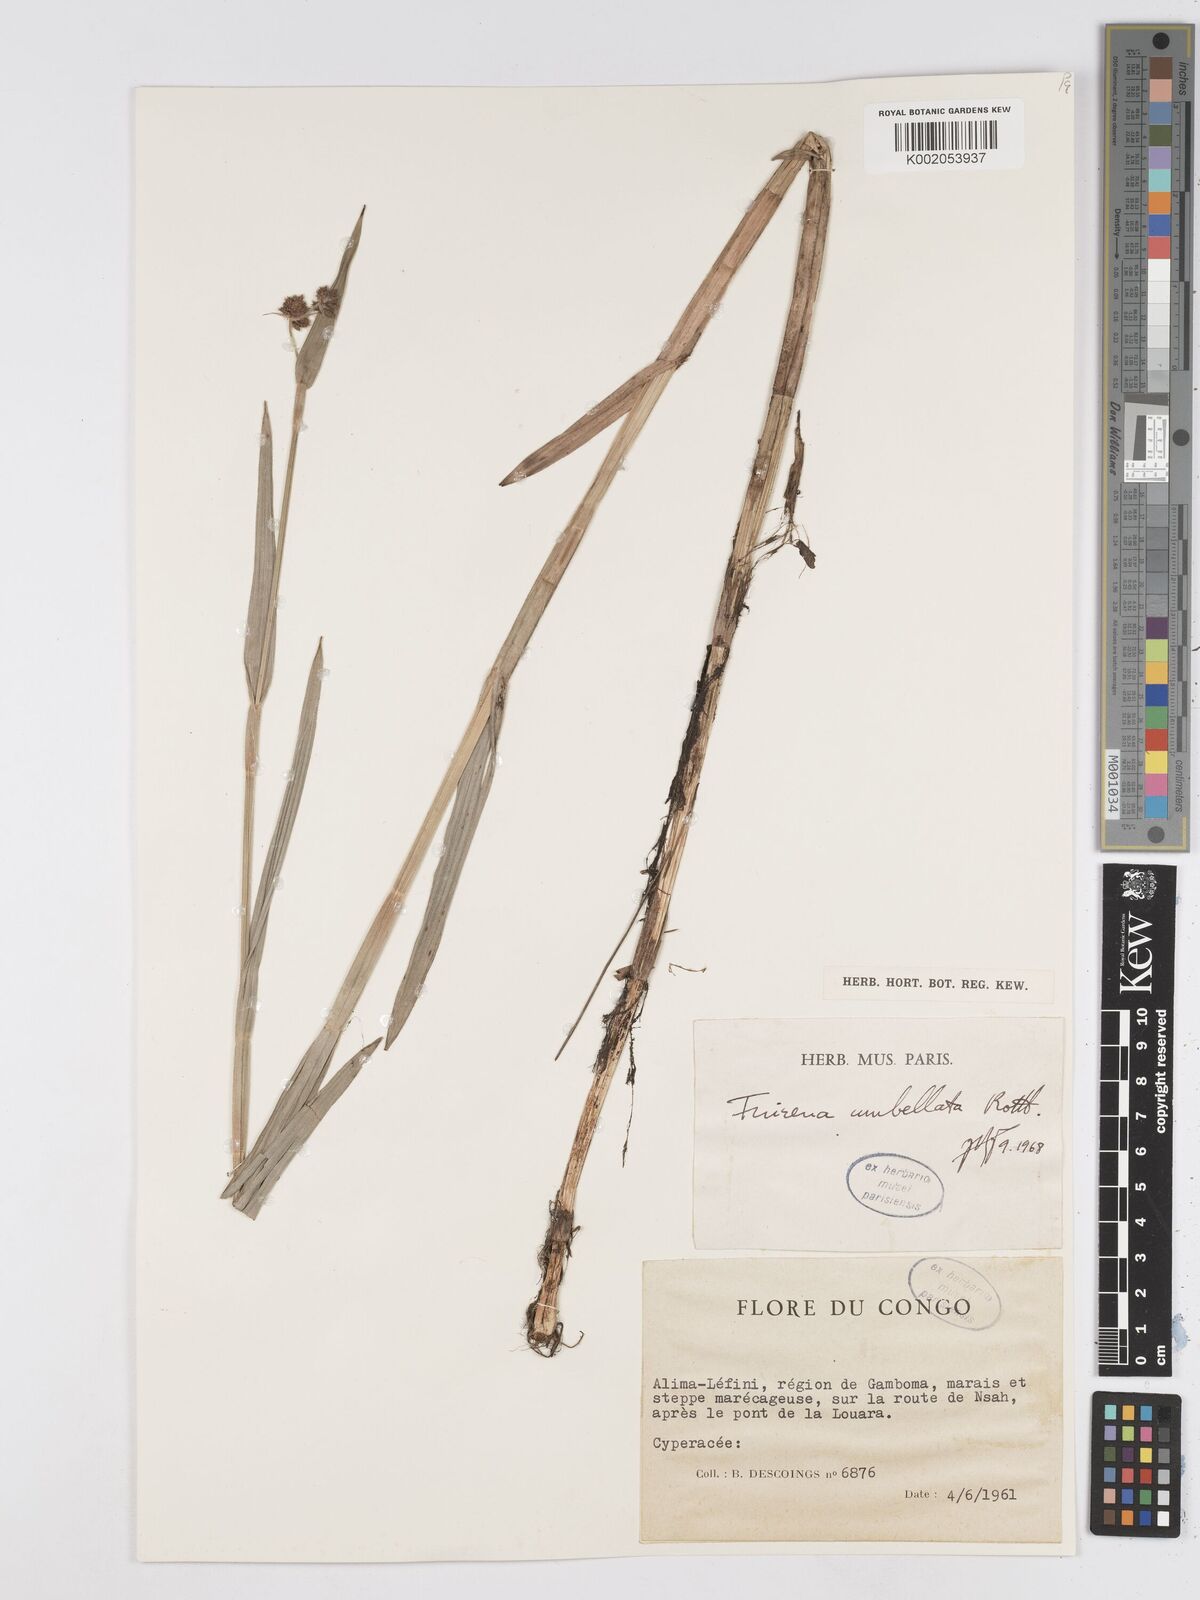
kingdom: Plantae
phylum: Tracheophyta
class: Liliopsida
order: Poales
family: Cyperaceae
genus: Fuirena
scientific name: Fuirena umbellata
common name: Yefen
